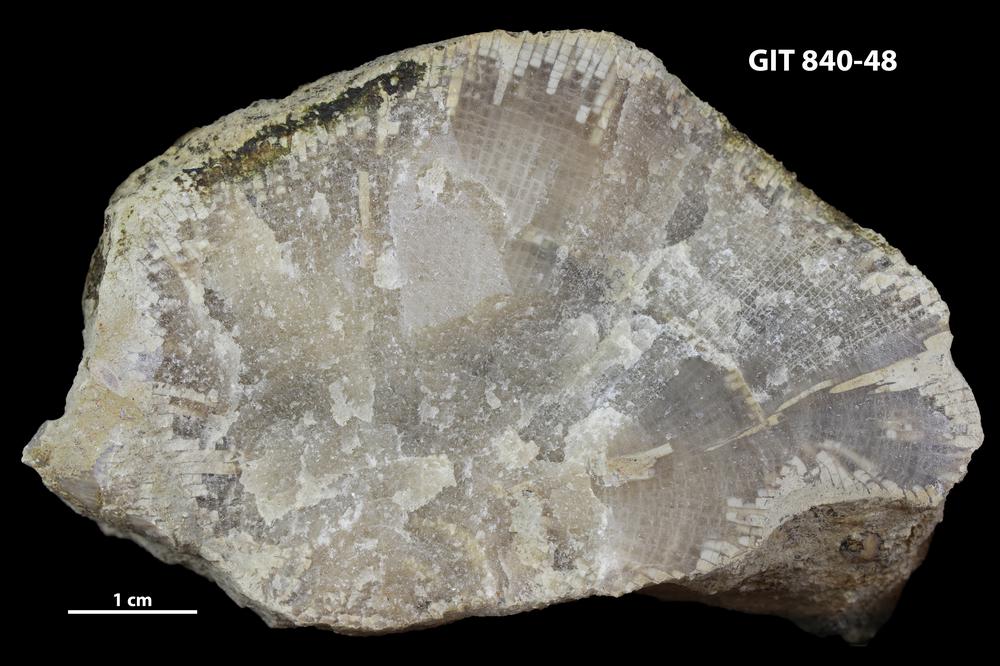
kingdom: Animalia
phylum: Cnidaria
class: Anthozoa
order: Heliolitina
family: Proheliolitidae
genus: Protoheliolites
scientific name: Protoheliolites
